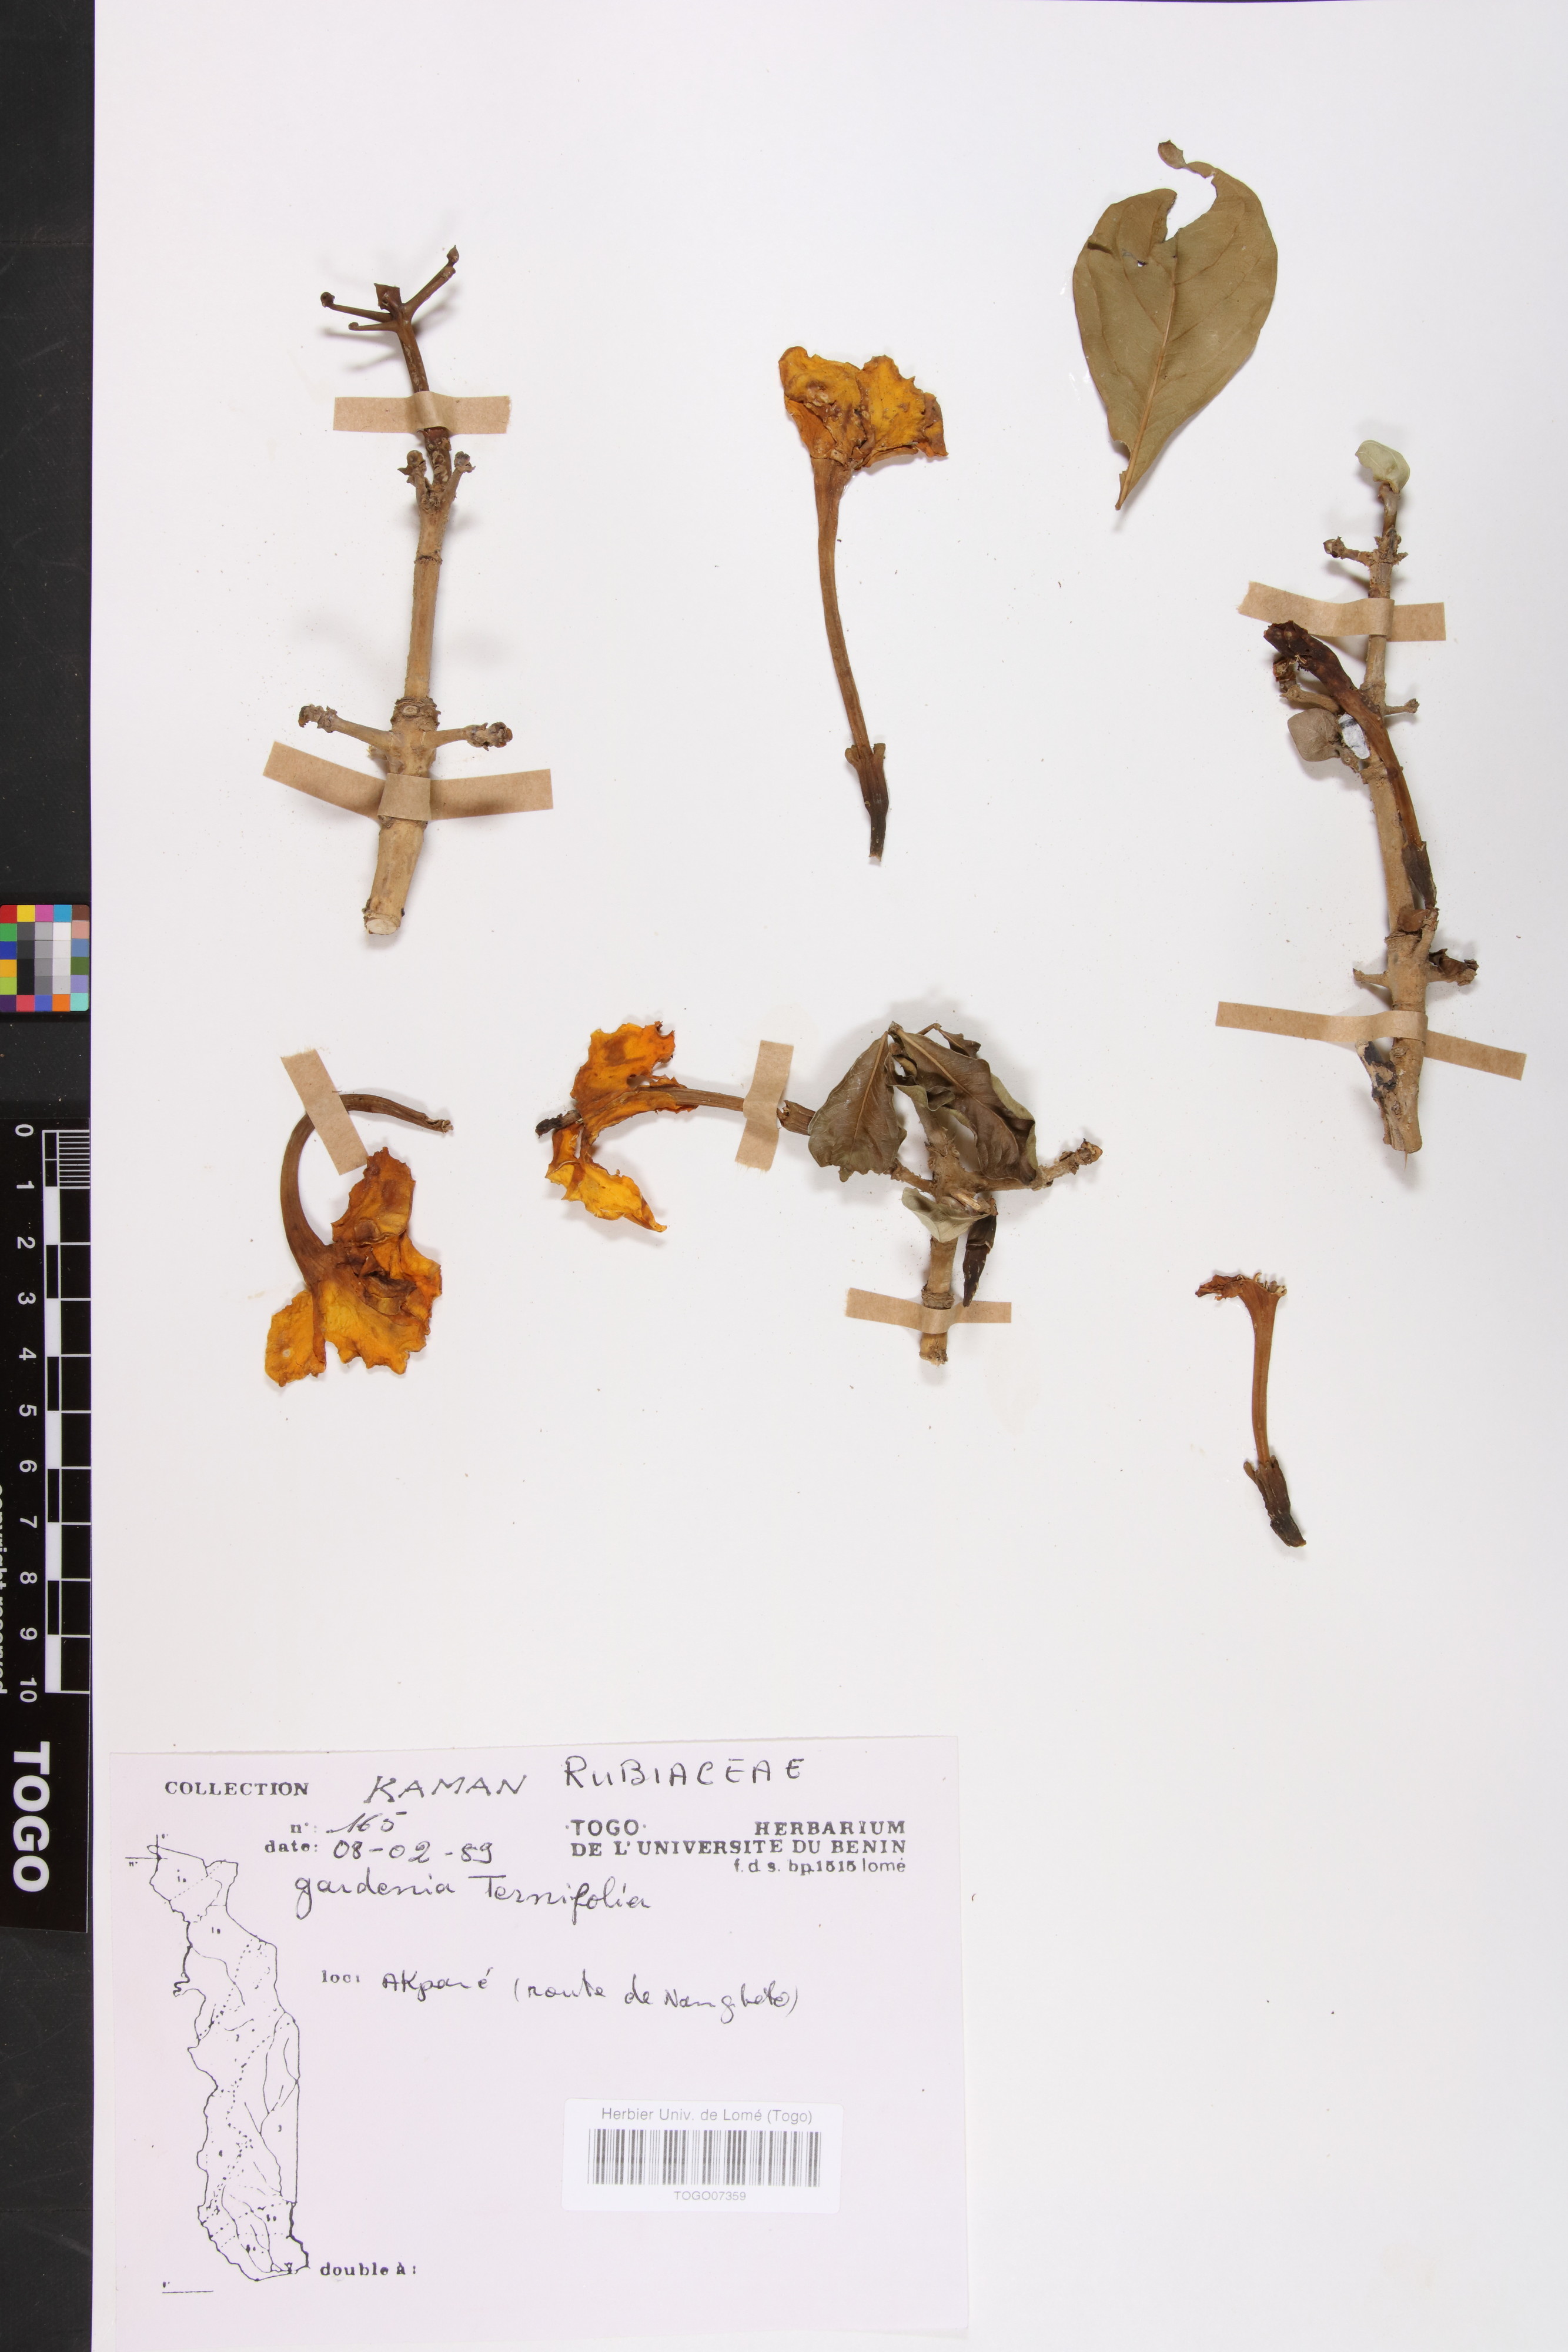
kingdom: Plantae
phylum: Tracheophyta
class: Magnoliopsida
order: Gentianales
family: Rubiaceae
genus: Gardenia
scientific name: Gardenia ternifolia
